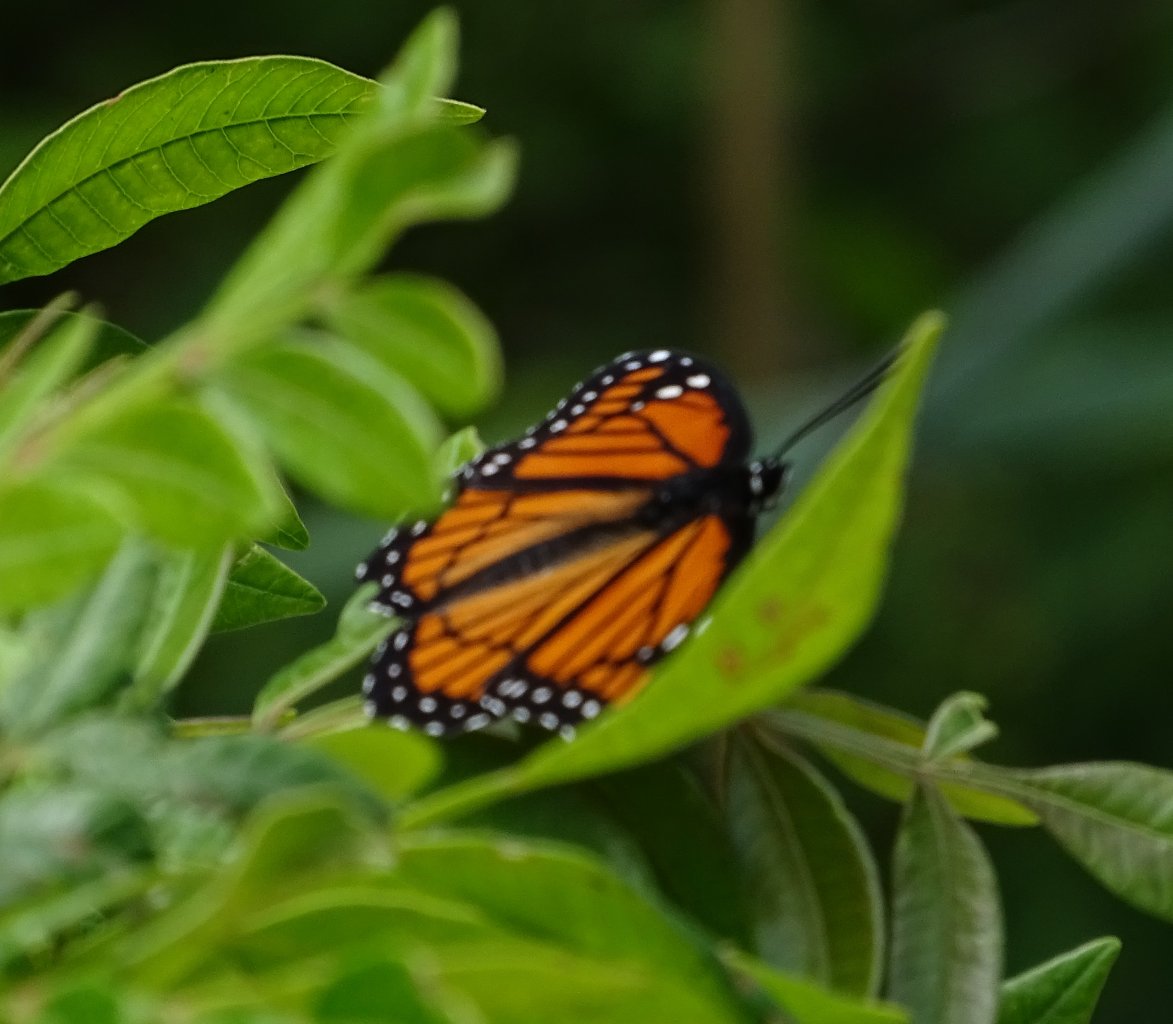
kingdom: Animalia
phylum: Arthropoda
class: Insecta
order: Lepidoptera
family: Nymphalidae
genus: Limenitis
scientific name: Limenitis archippus
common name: Viceroy
